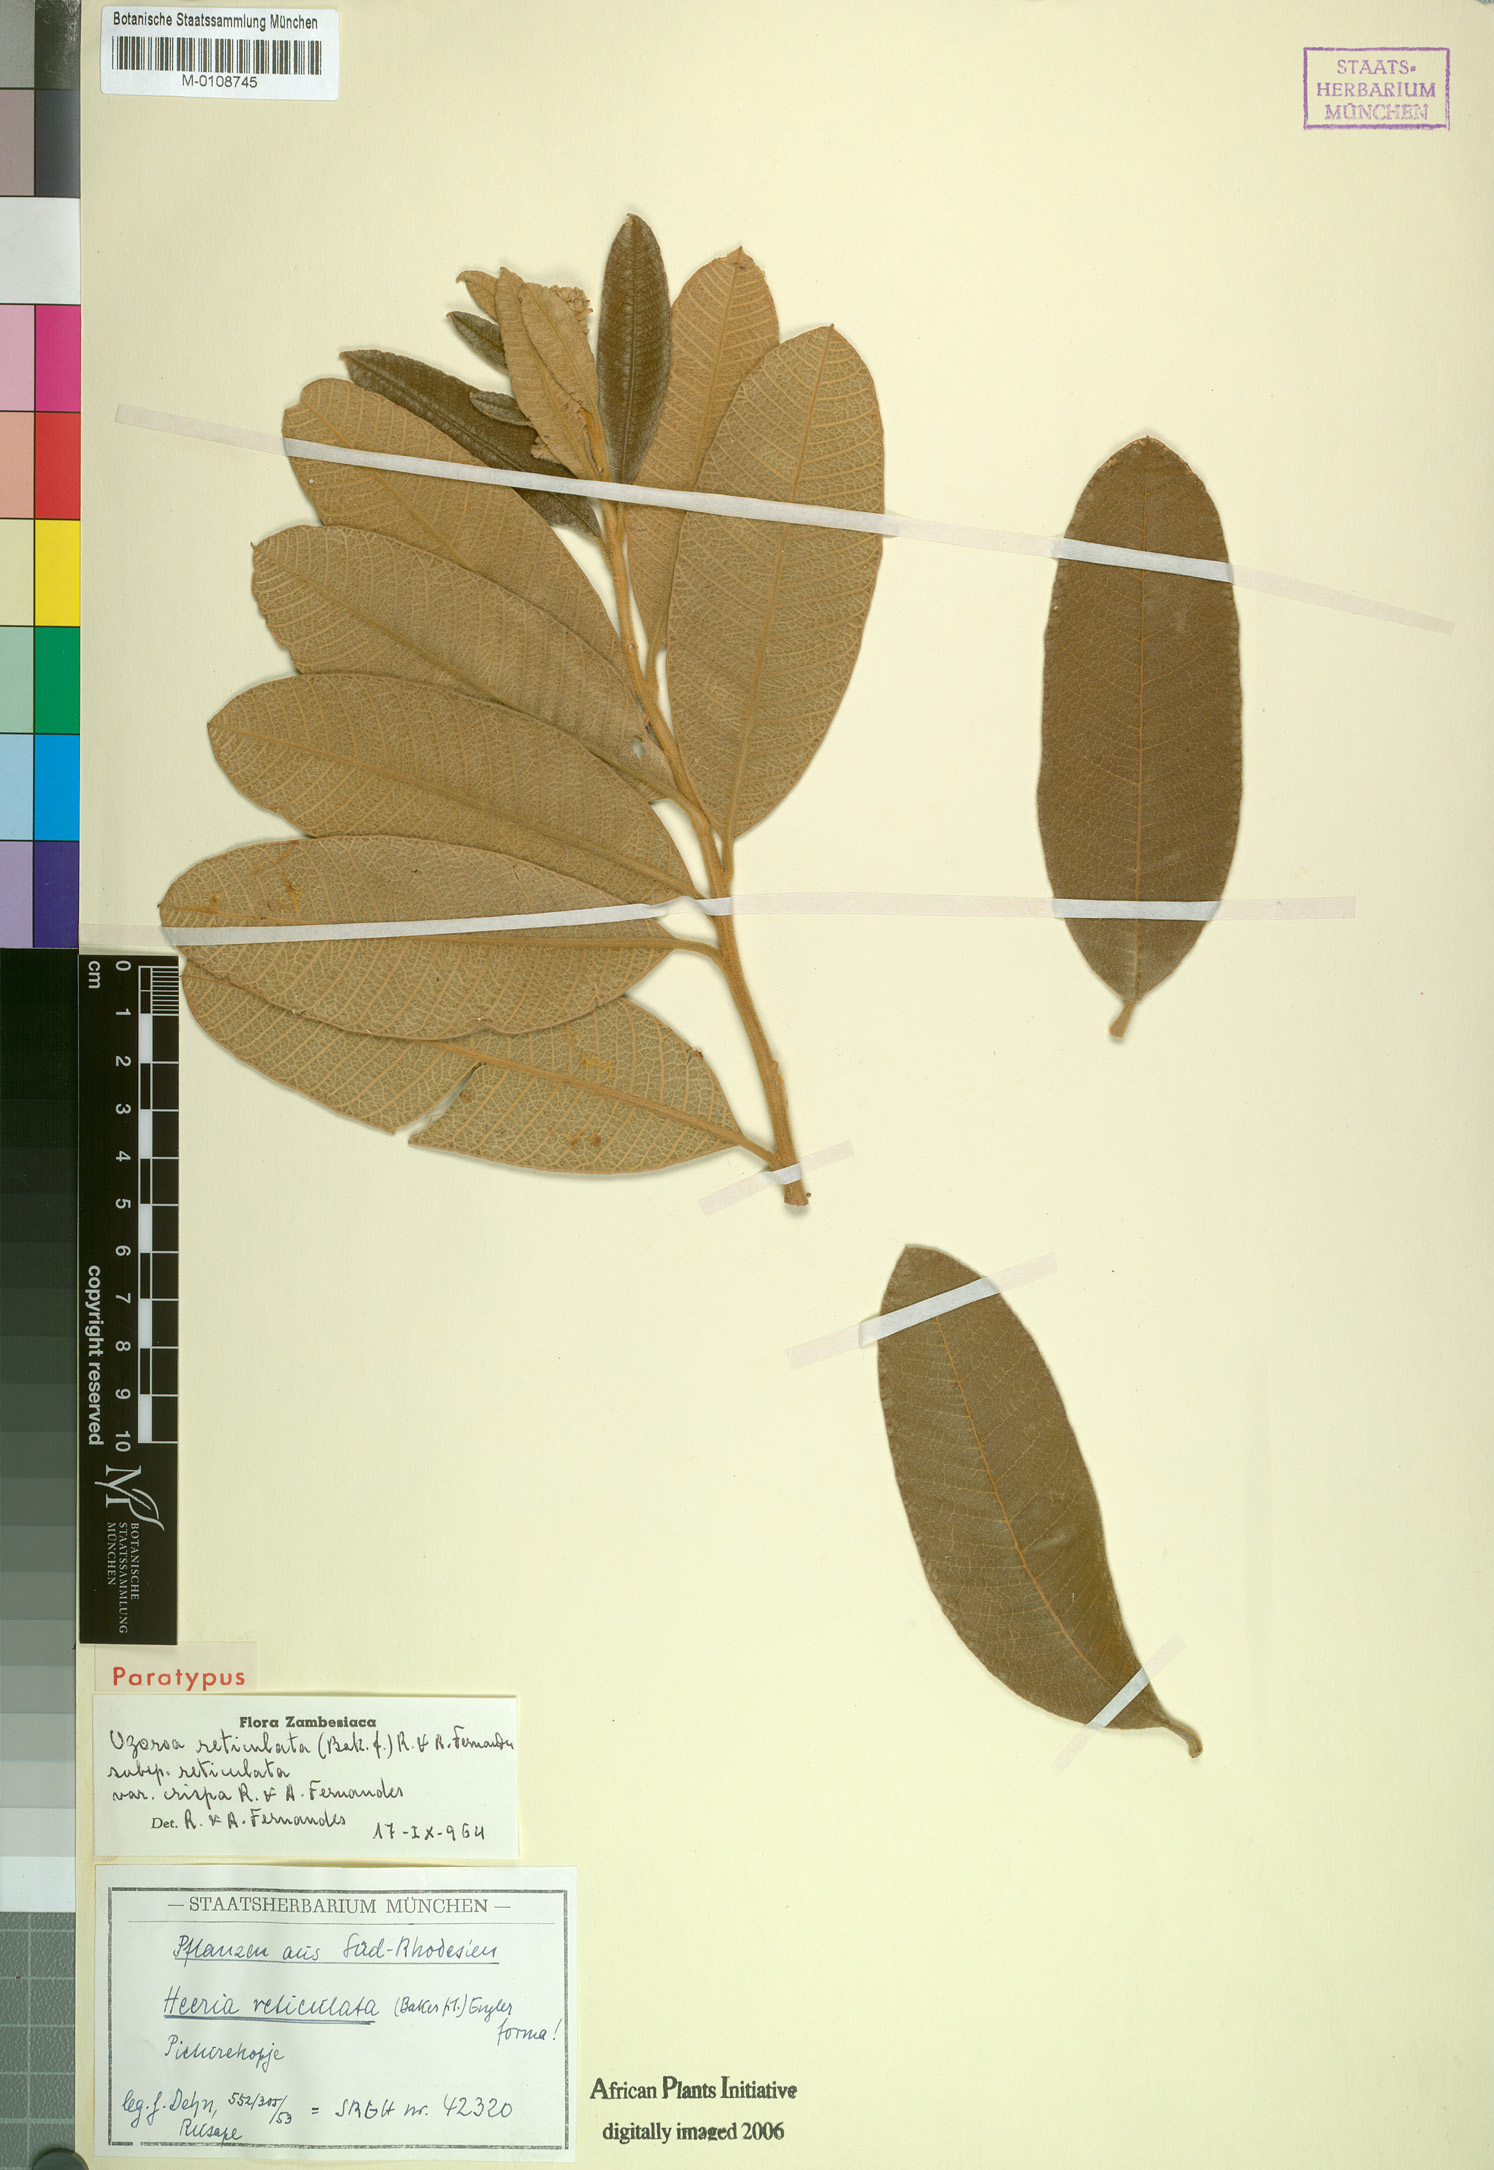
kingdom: Plantae
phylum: Tracheophyta
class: Magnoliopsida
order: Sapindales
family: Anacardiaceae
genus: Ozoroa
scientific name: Ozoroa insignis
